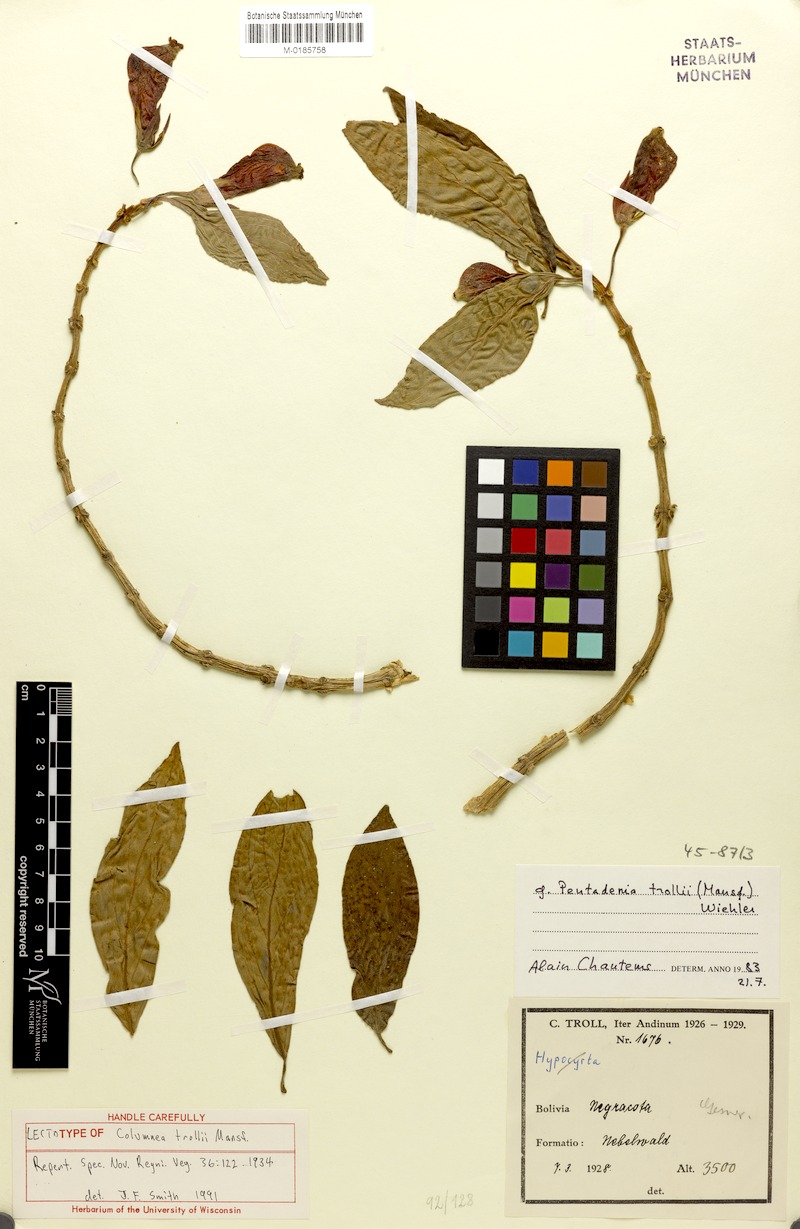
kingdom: Plantae
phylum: Tracheophyta
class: Magnoliopsida
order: Lamiales
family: Gesneriaceae
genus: Columnea
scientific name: Columnea trollii
